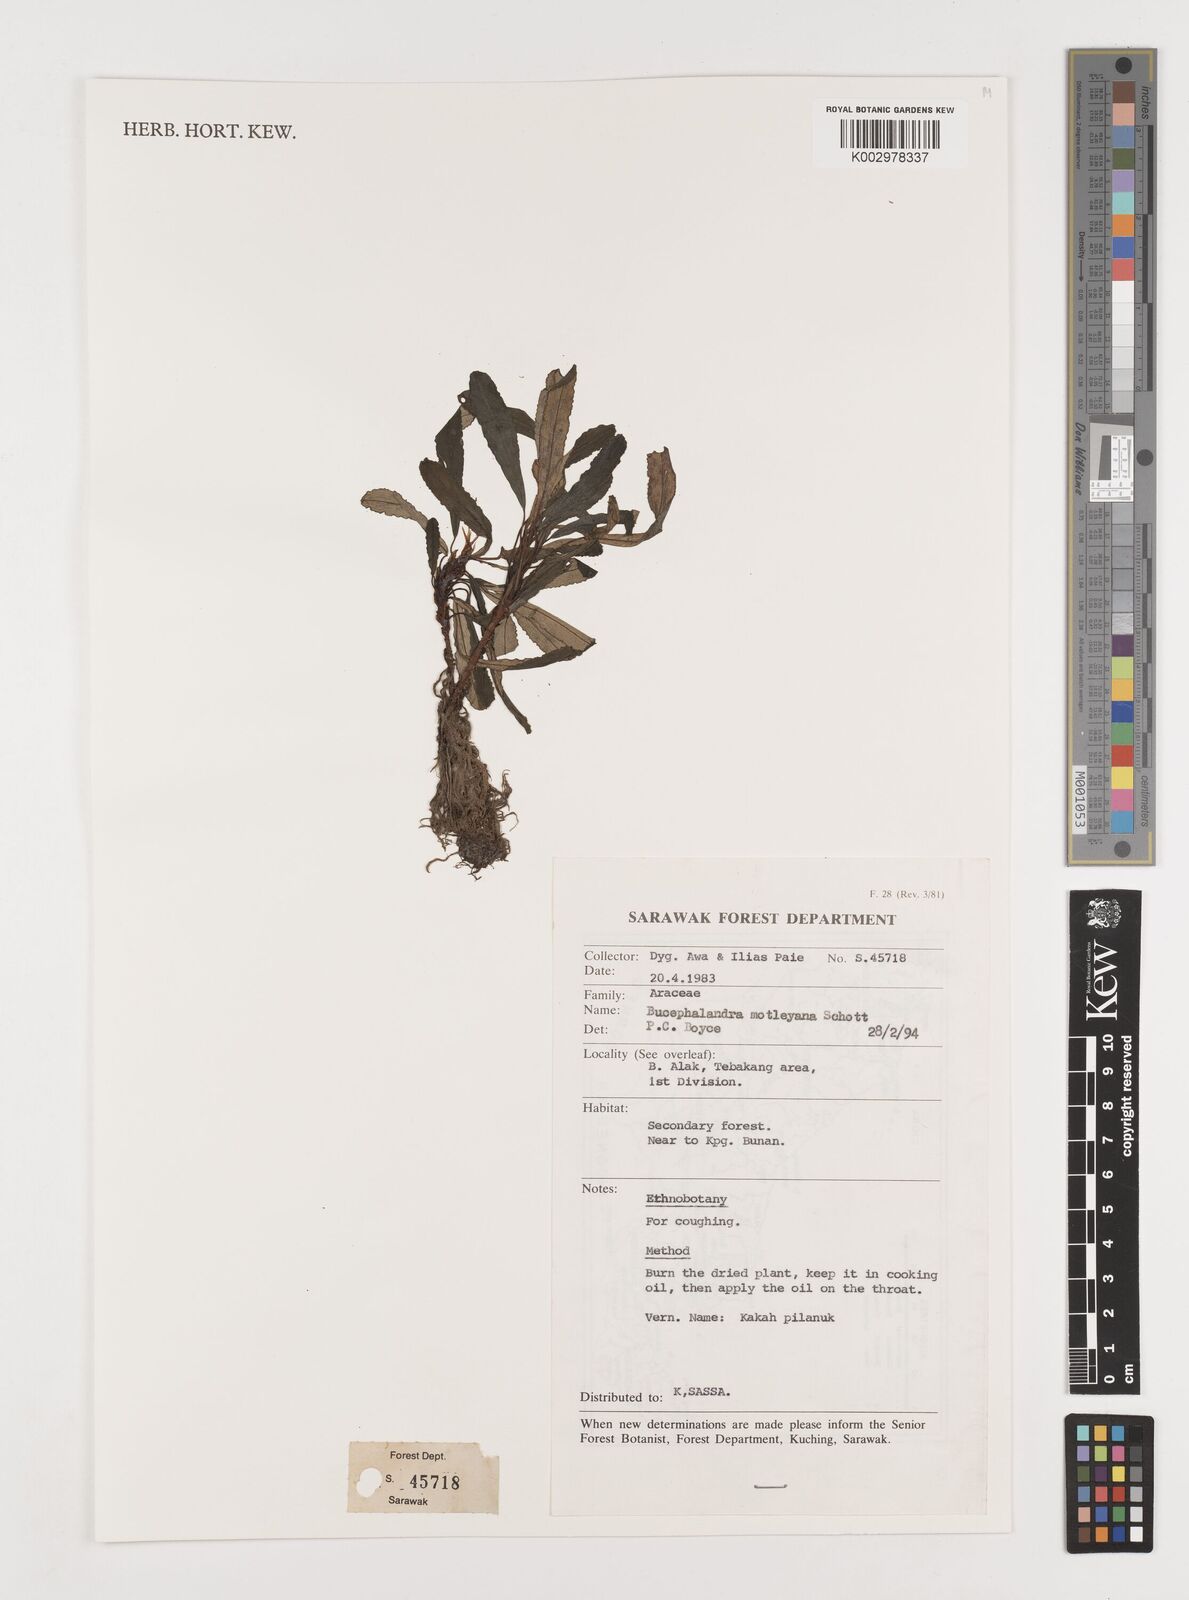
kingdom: Plantae
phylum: Tracheophyta
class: Liliopsida
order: Alismatales
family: Araceae
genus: Bucephalandra
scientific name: Bucephalandra motleyana
